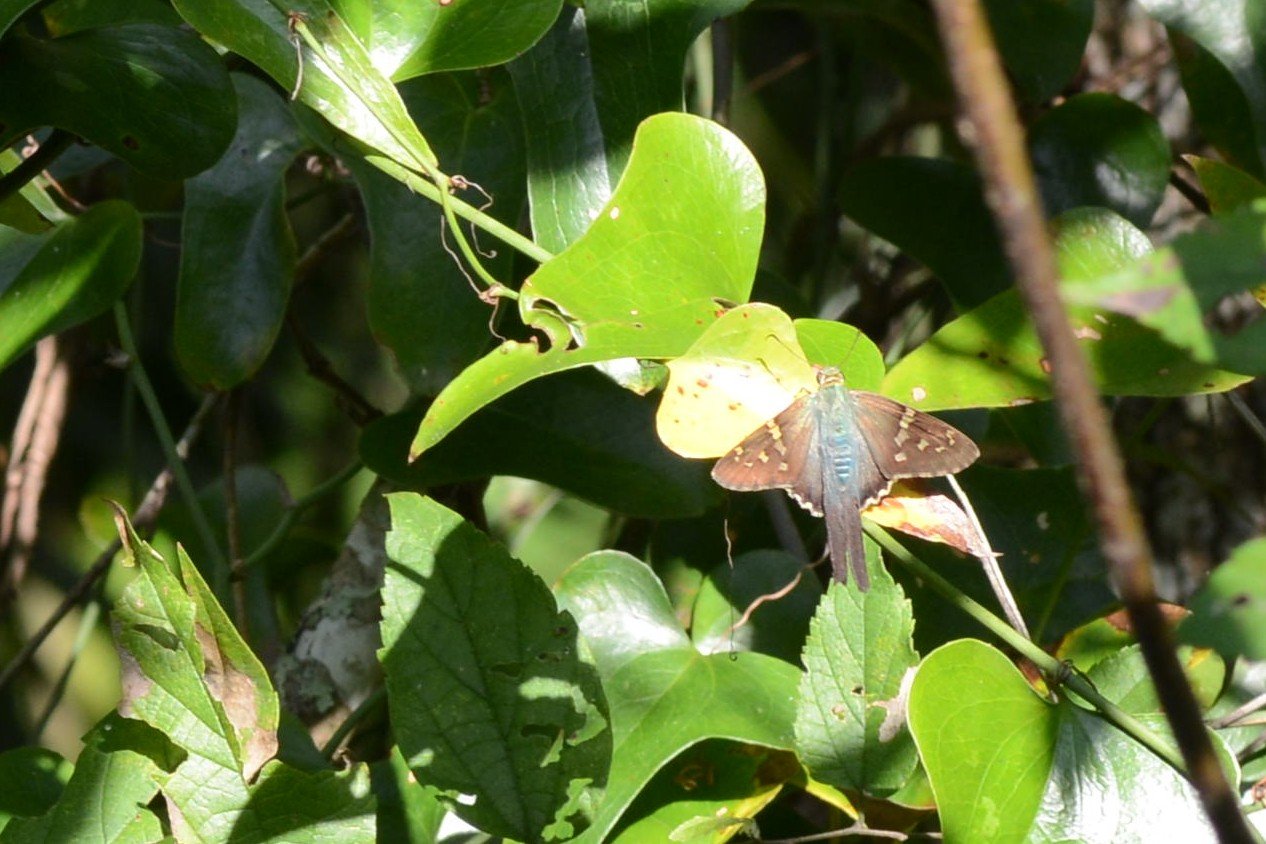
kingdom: Animalia
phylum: Arthropoda
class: Insecta
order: Lepidoptera
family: Hesperiidae
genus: Urbanus
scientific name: Urbanus proteus
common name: Long-tailed Skipper
